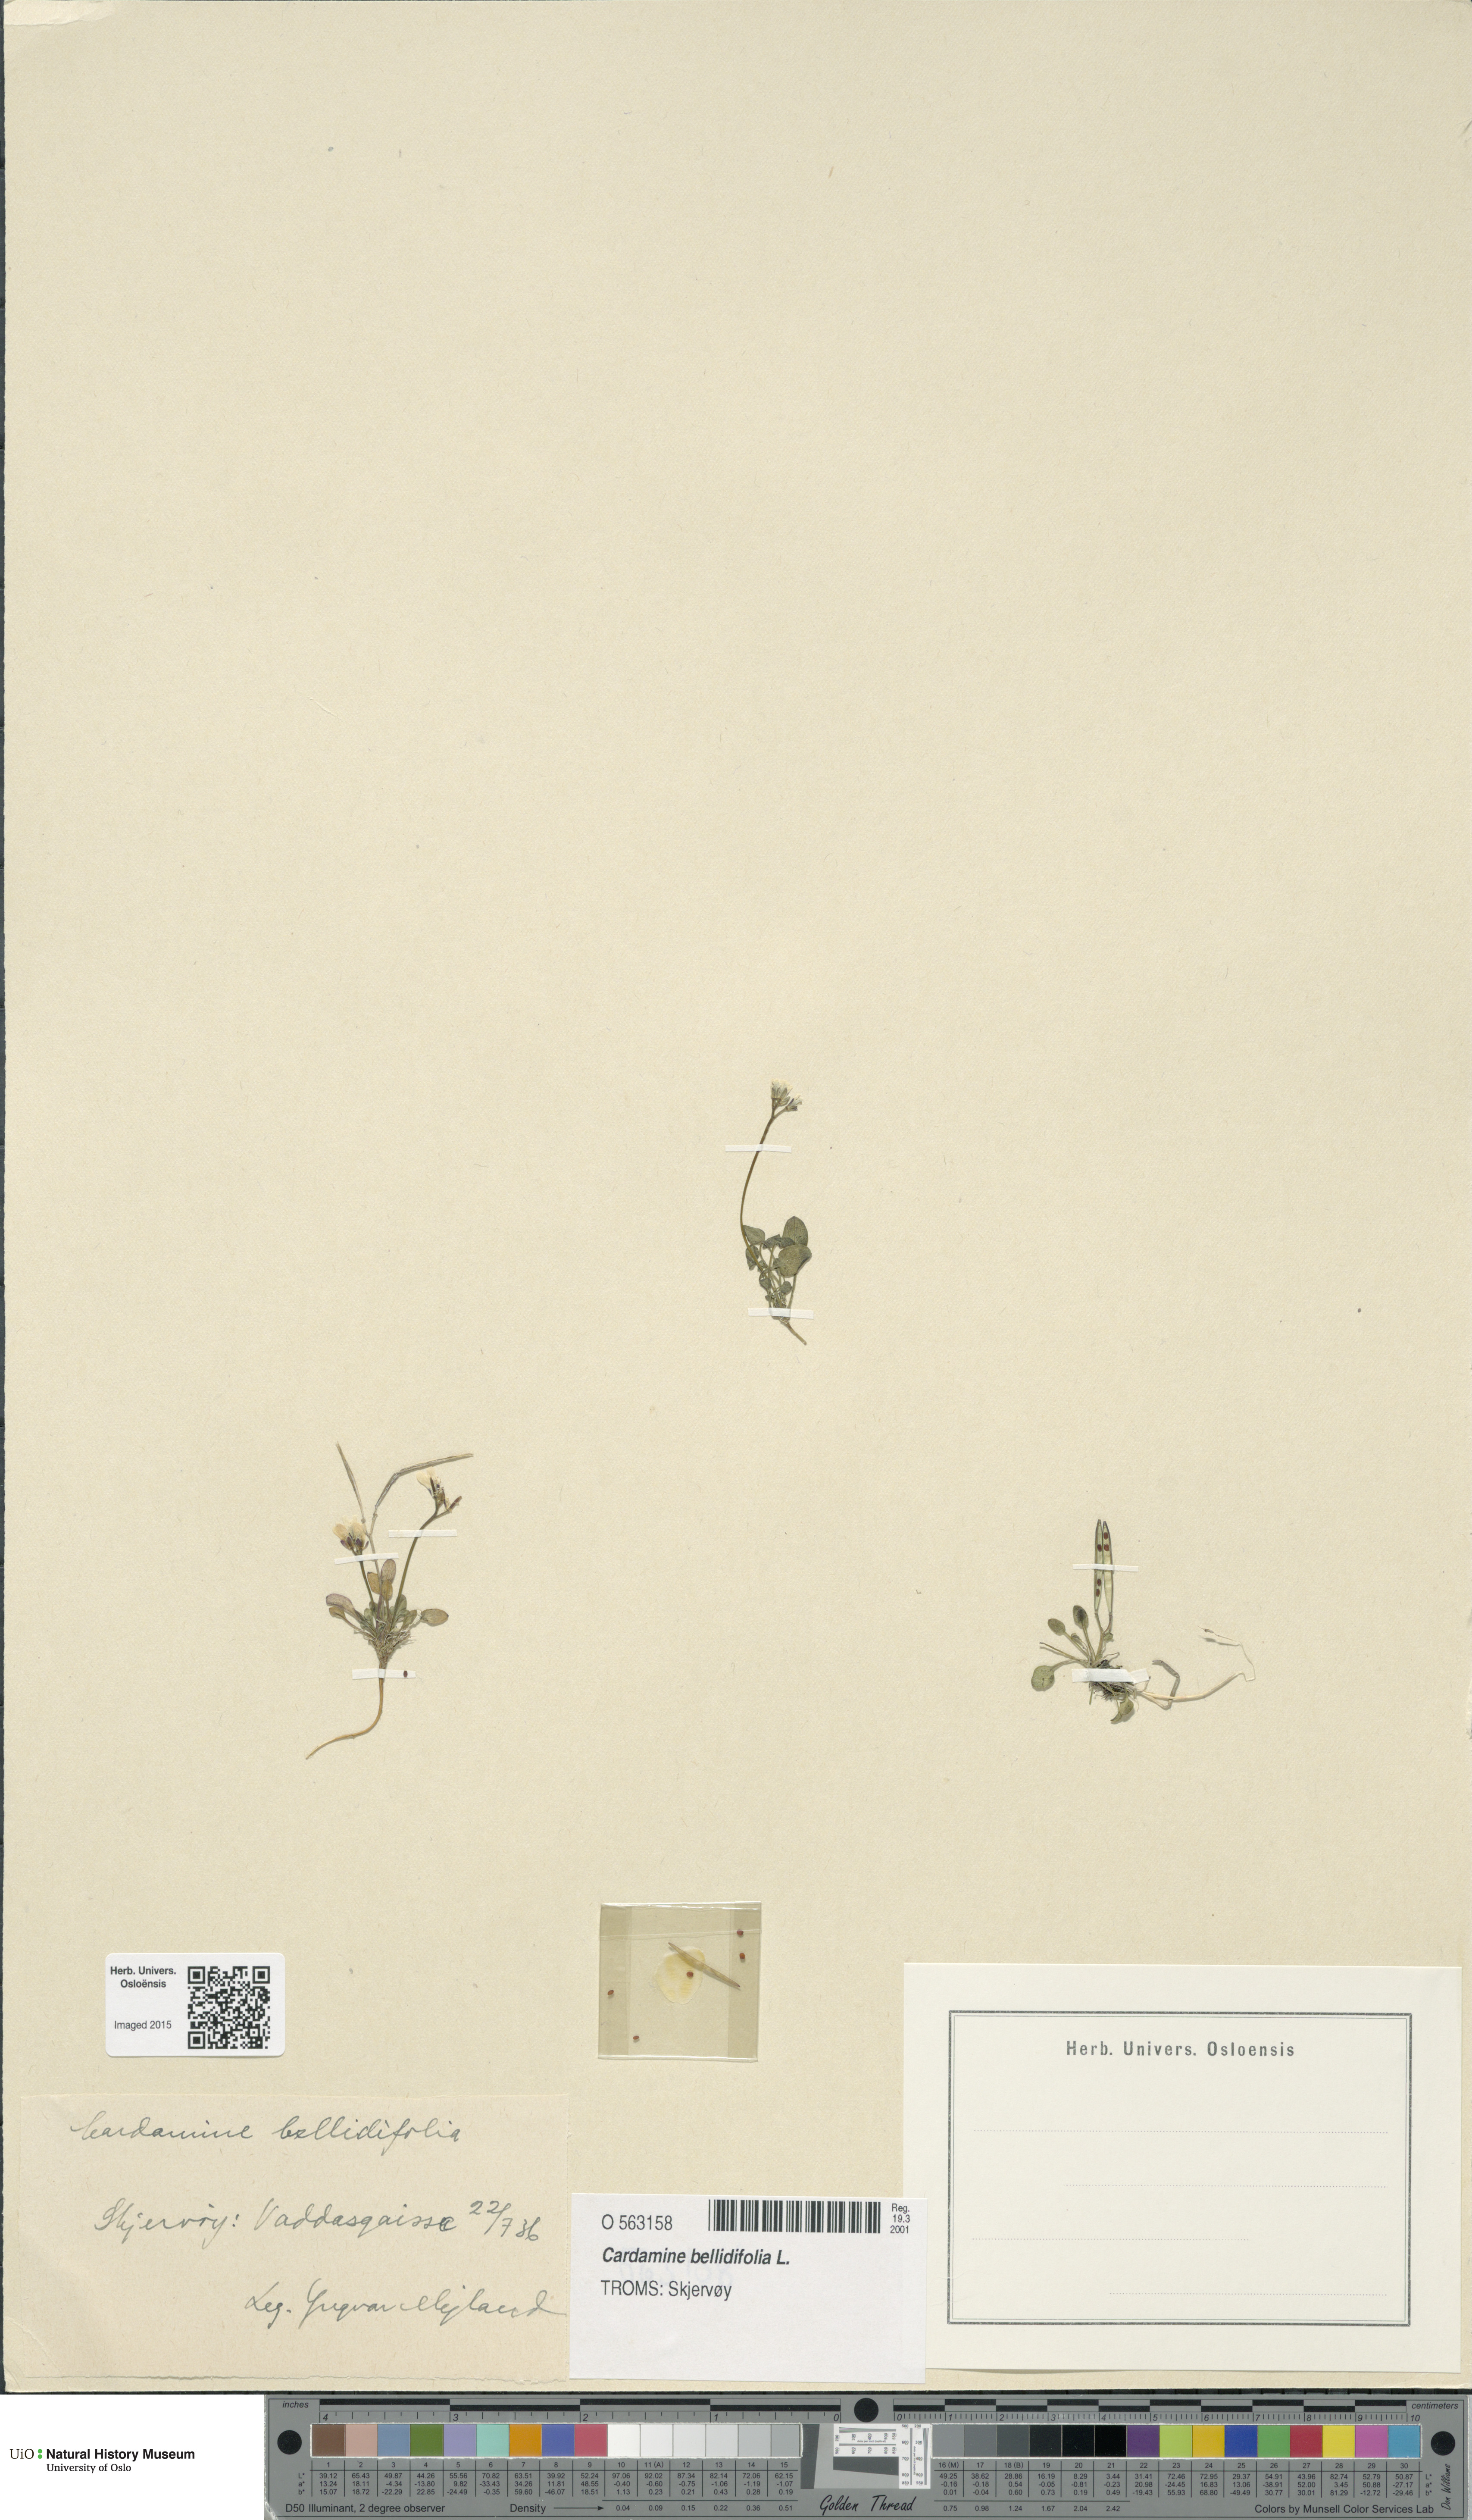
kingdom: Plantae
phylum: Tracheophyta
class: Magnoliopsida
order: Brassicales
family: Brassicaceae
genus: Cardamine
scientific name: Cardamine bellidifolia
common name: Alpine bittercress
